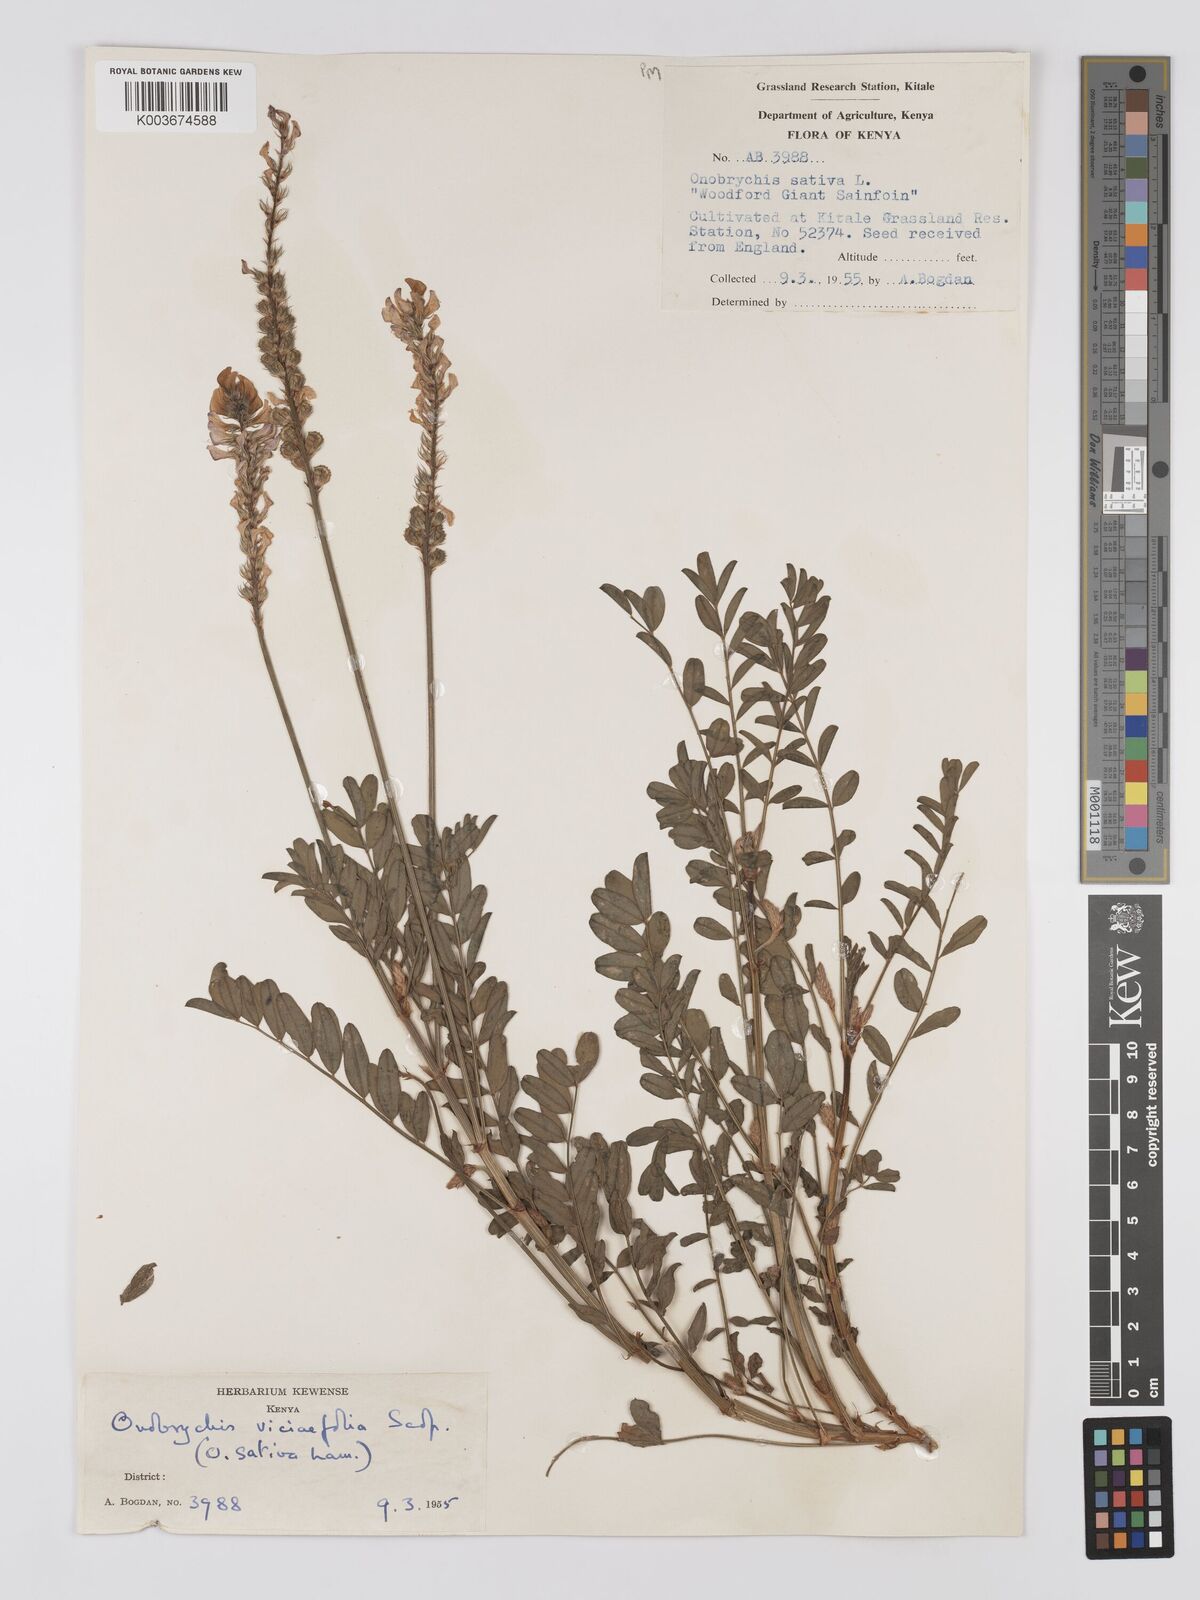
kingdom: Plantae
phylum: Tracheophyta
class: Magnoliopsida
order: Fabales
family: Fabaceae
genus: Onobrychis
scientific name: Onobrychis viciifolia
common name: Sainfoin
